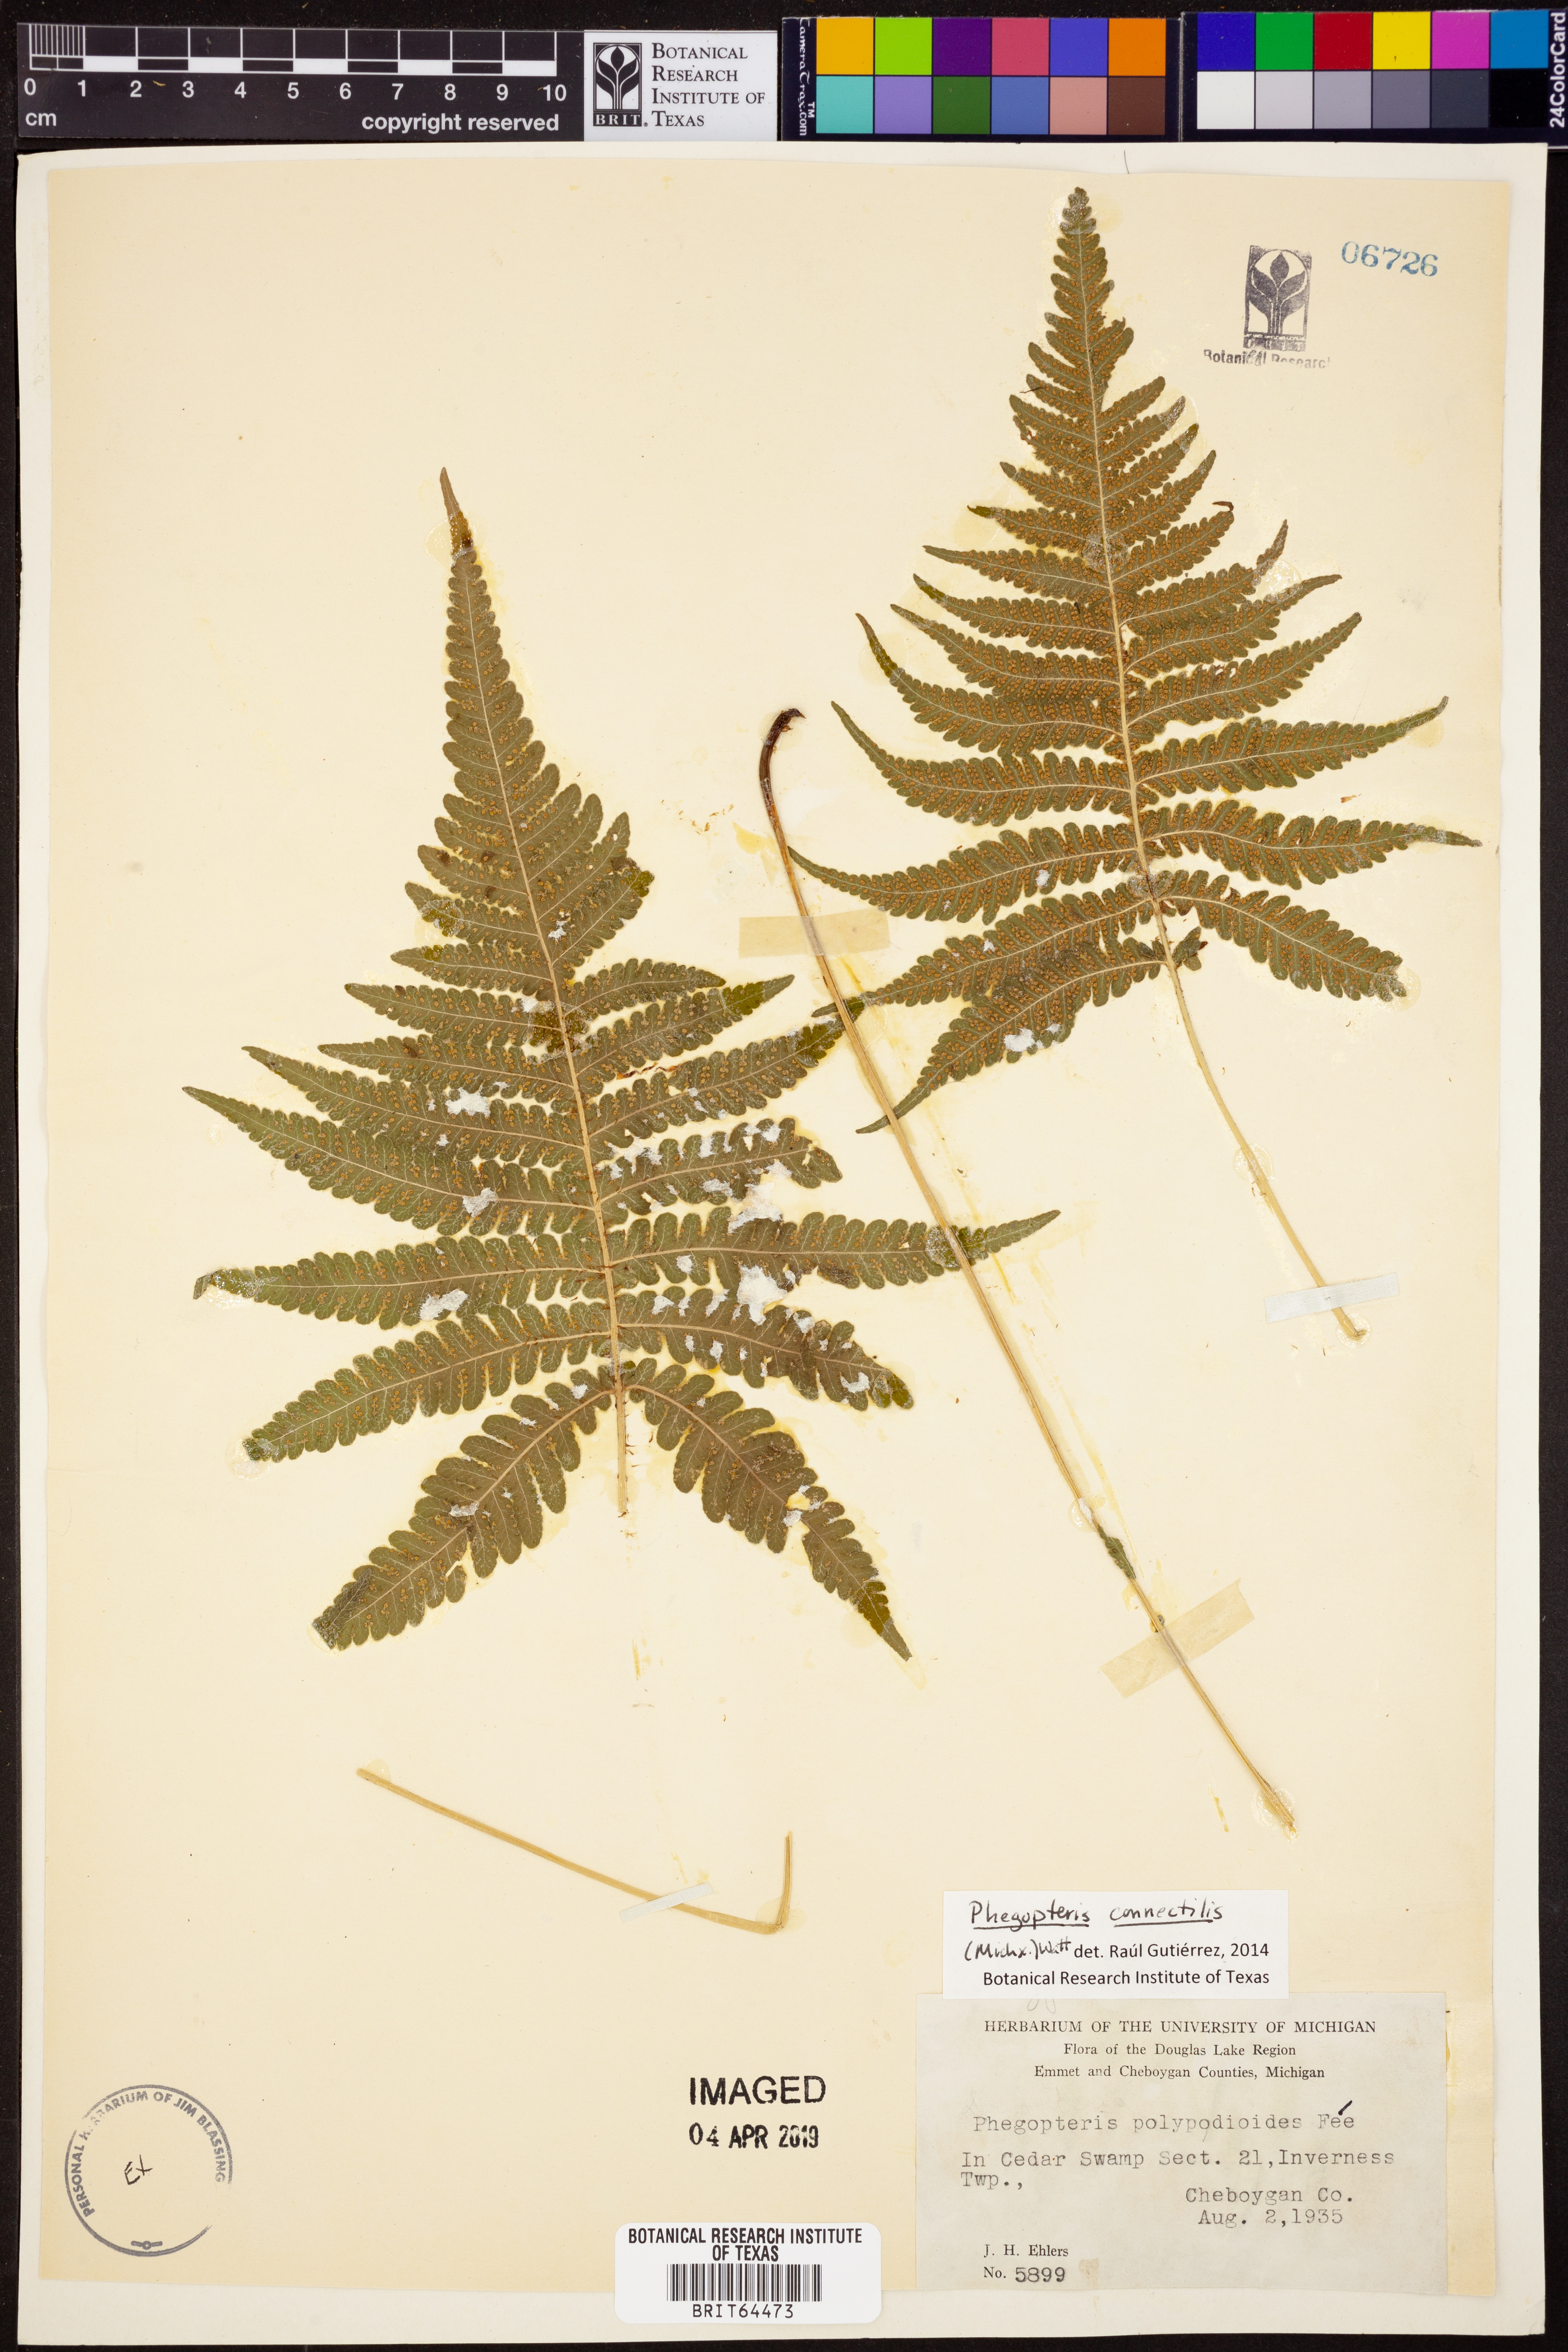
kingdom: Plantae
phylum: Tracheophyta
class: Polypodiopsida
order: Polypodiales
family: Thelypteridaceae
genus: Phegopteris
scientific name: Phegopteris connectilis
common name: Beech fern
